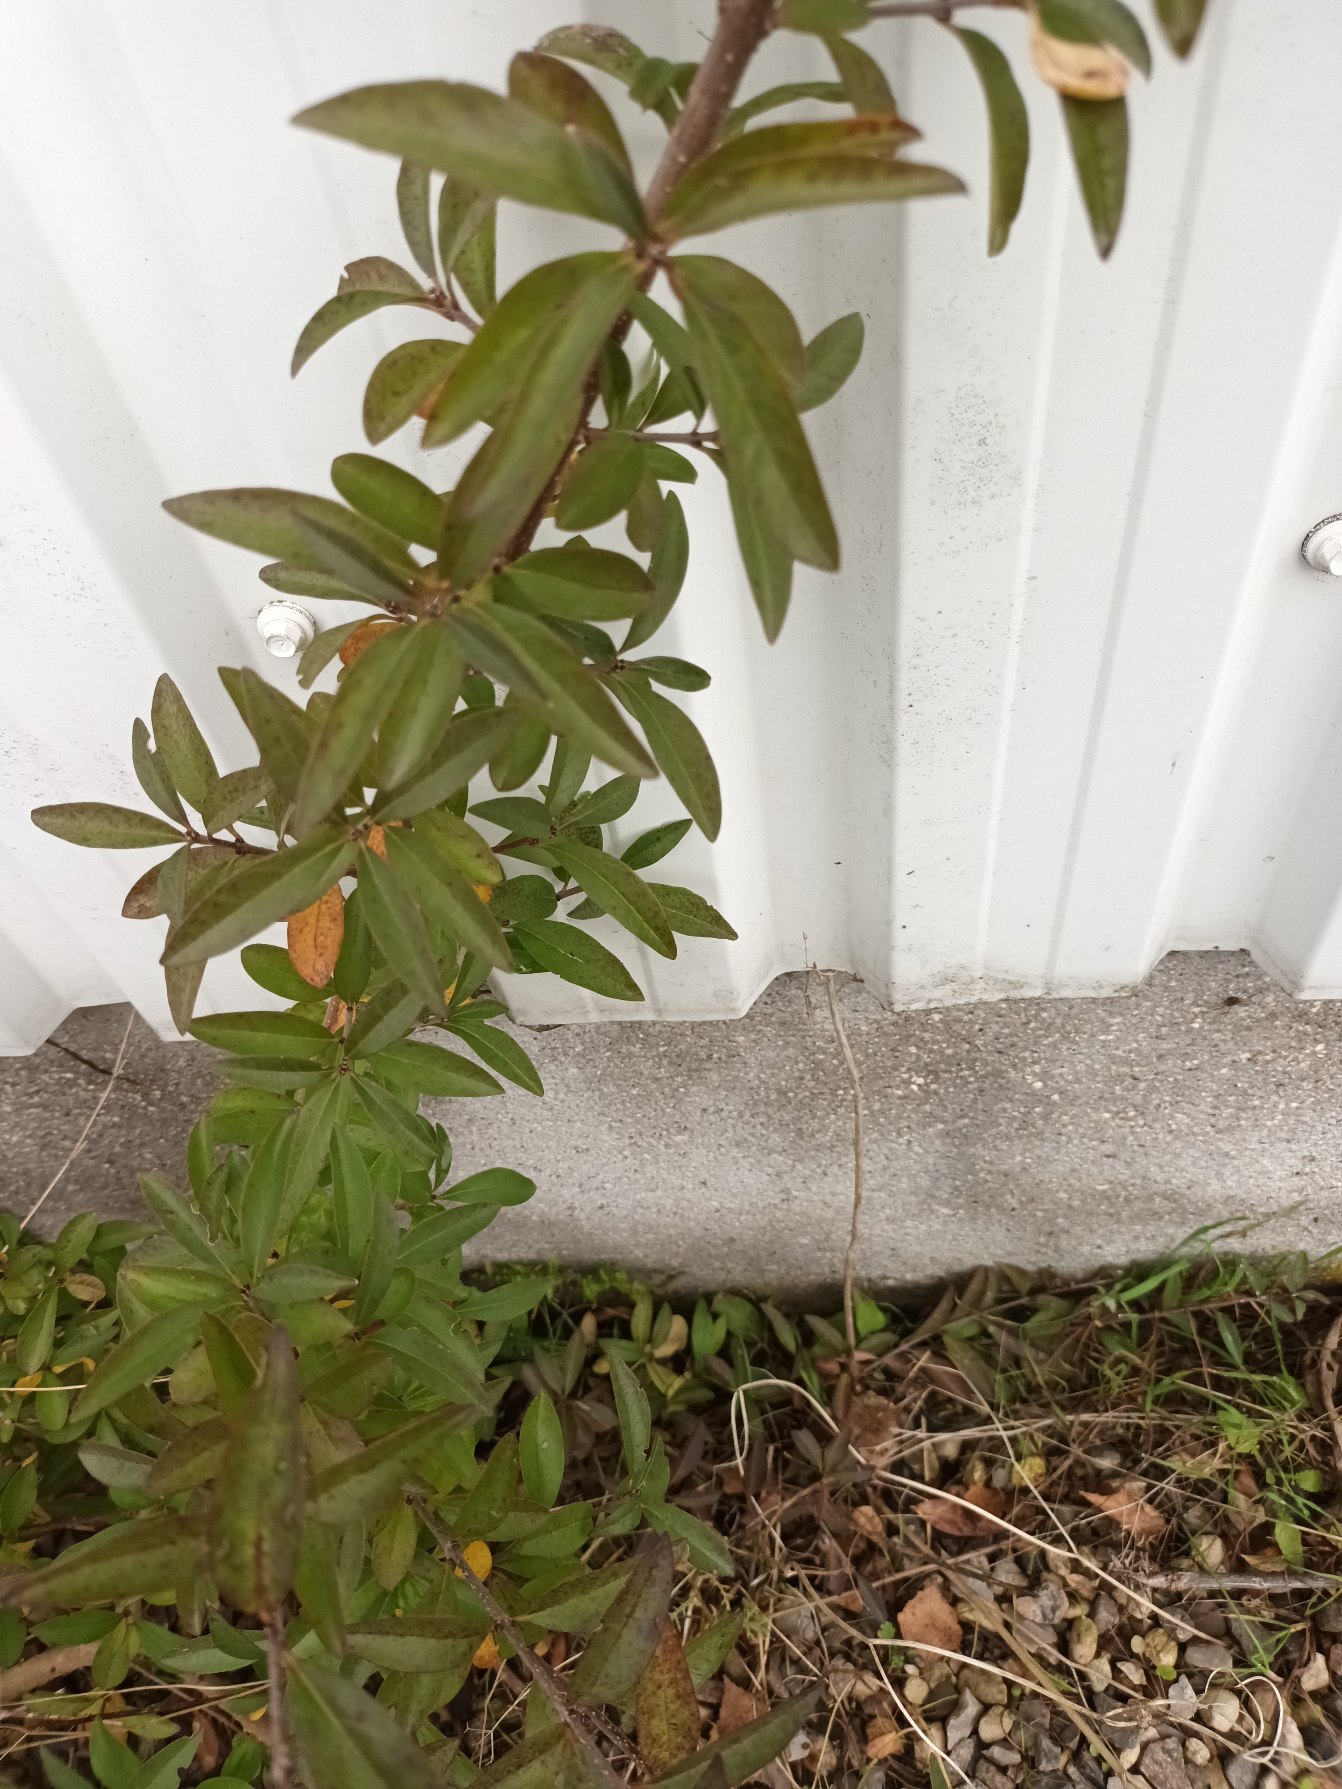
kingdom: Plantae
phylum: Tracheophyta
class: Magnoliopsida
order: Lamiales
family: Oleaceae
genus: Ligustrum
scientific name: Ligustrum vulgare
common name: Liguster
